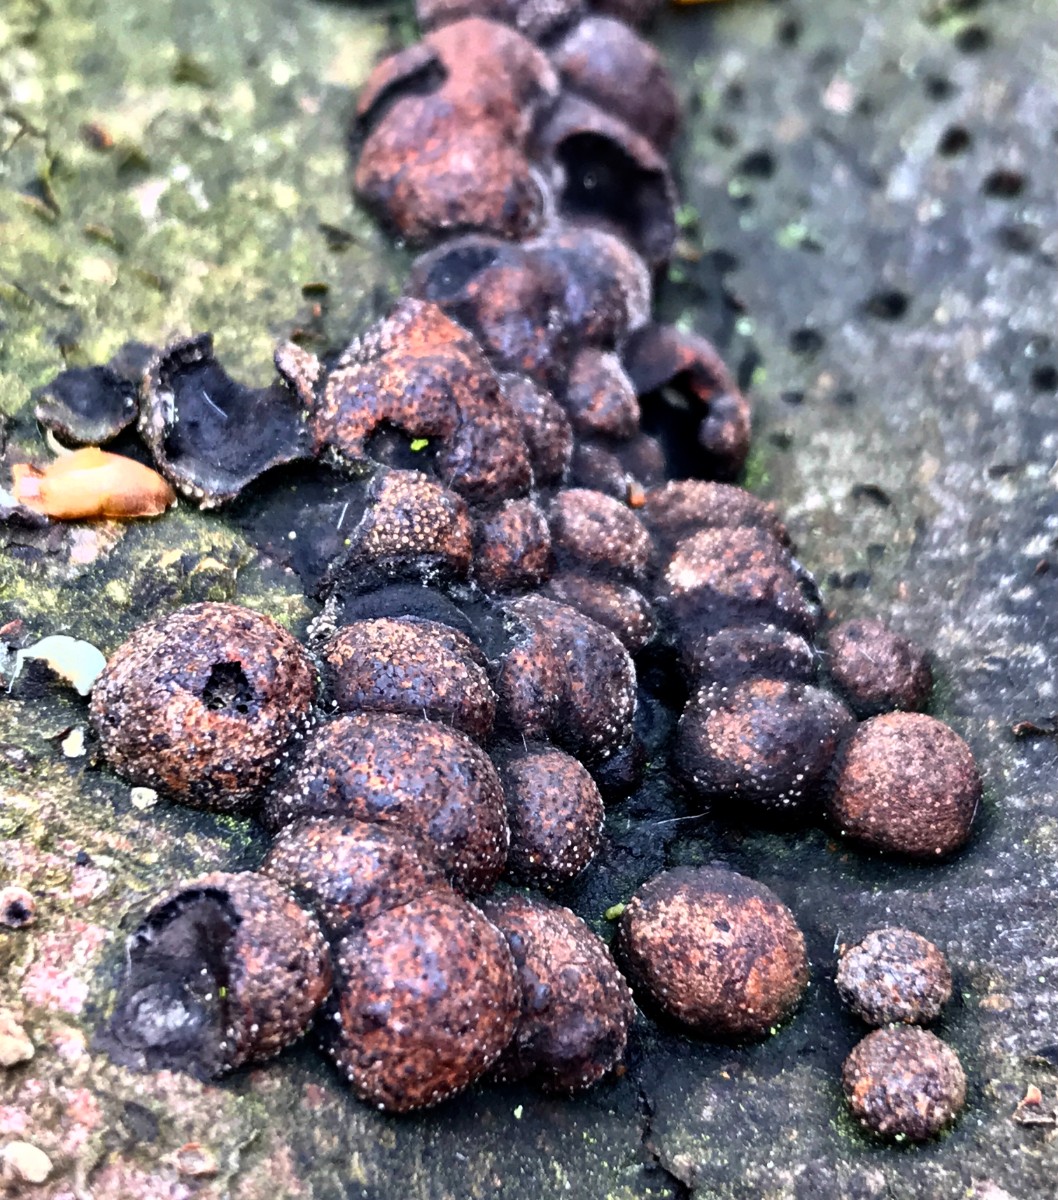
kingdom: Fungi
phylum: Ascomycota
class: Sordariomycetes
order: Xylariales
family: Hypoxylaceae
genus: Hypoxylon
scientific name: Hypoxylon fragiforme
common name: kuljordbær
